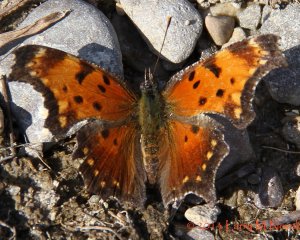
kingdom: Animalia
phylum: Arthropoda
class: Insecta
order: Lepidoptera
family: Nymphalidae
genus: Polygonia
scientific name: Polygonia progne
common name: Gray Comma
